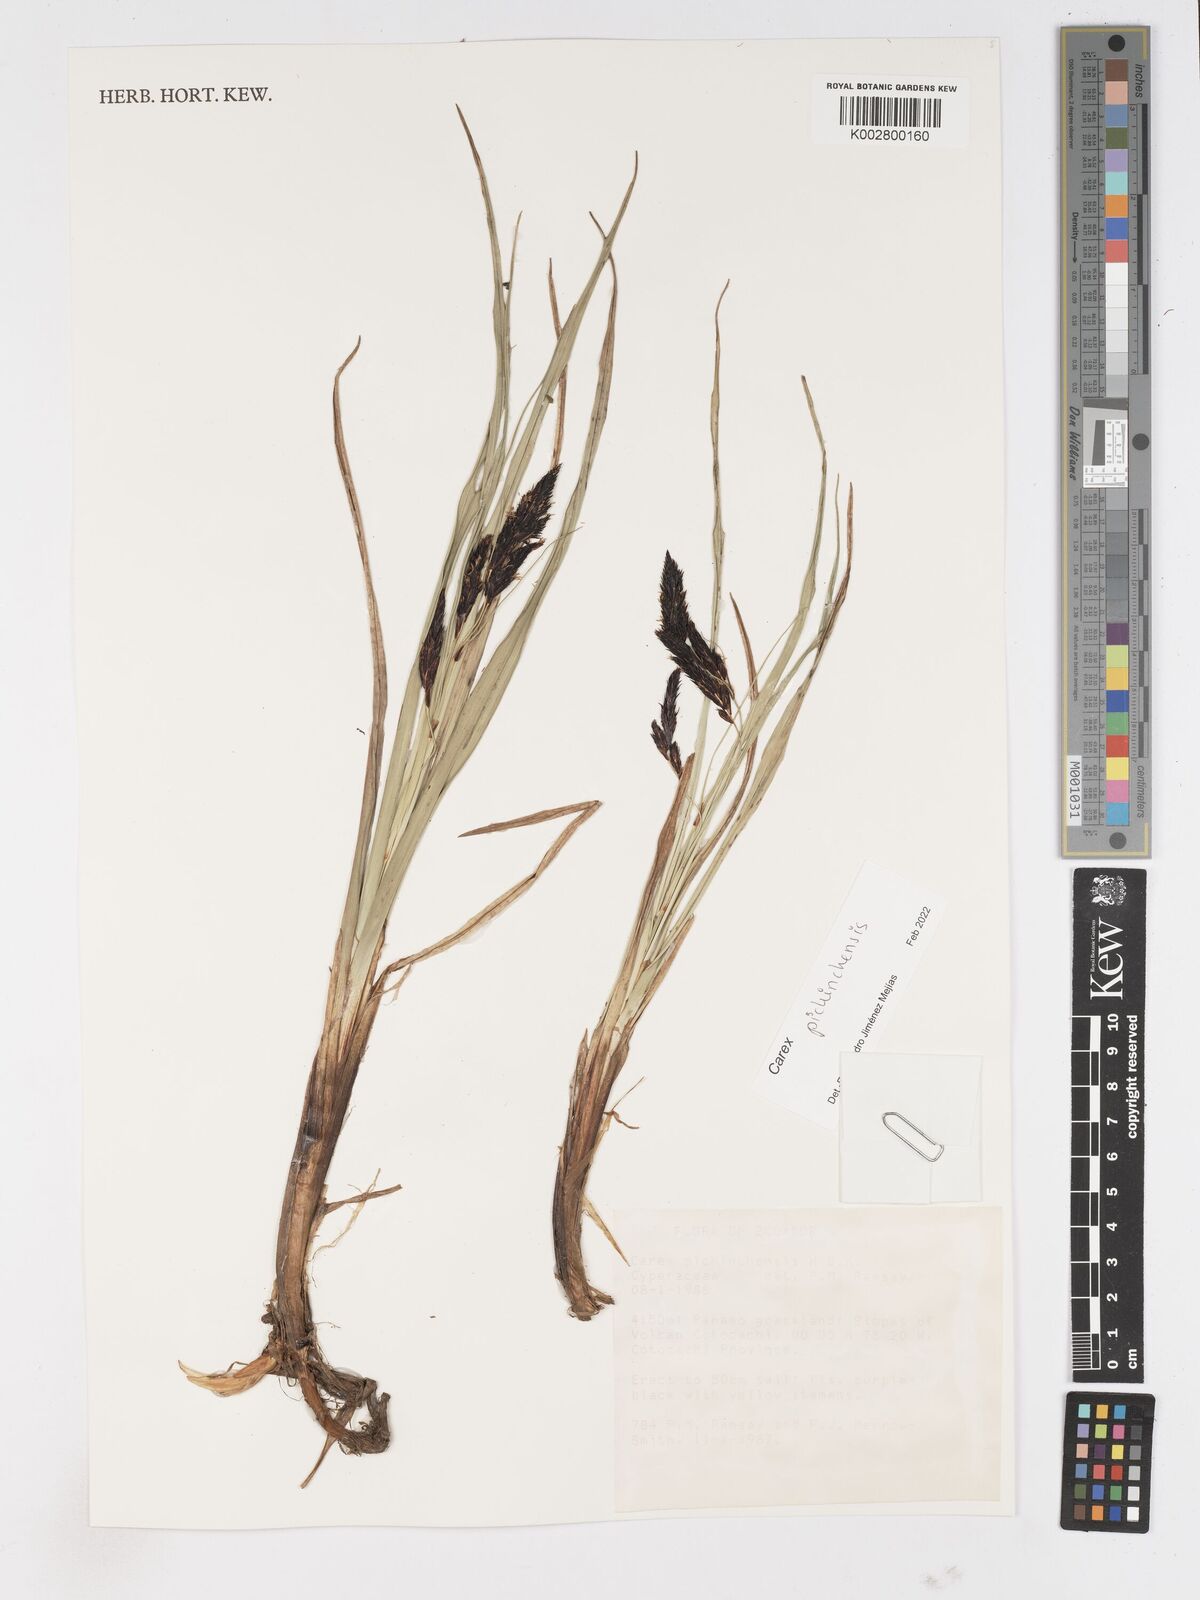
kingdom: Plantae
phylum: Tracheophyta
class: Liliopsida
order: Poales
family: Cyperaceae
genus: Carex
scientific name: Carex pichinchensis
